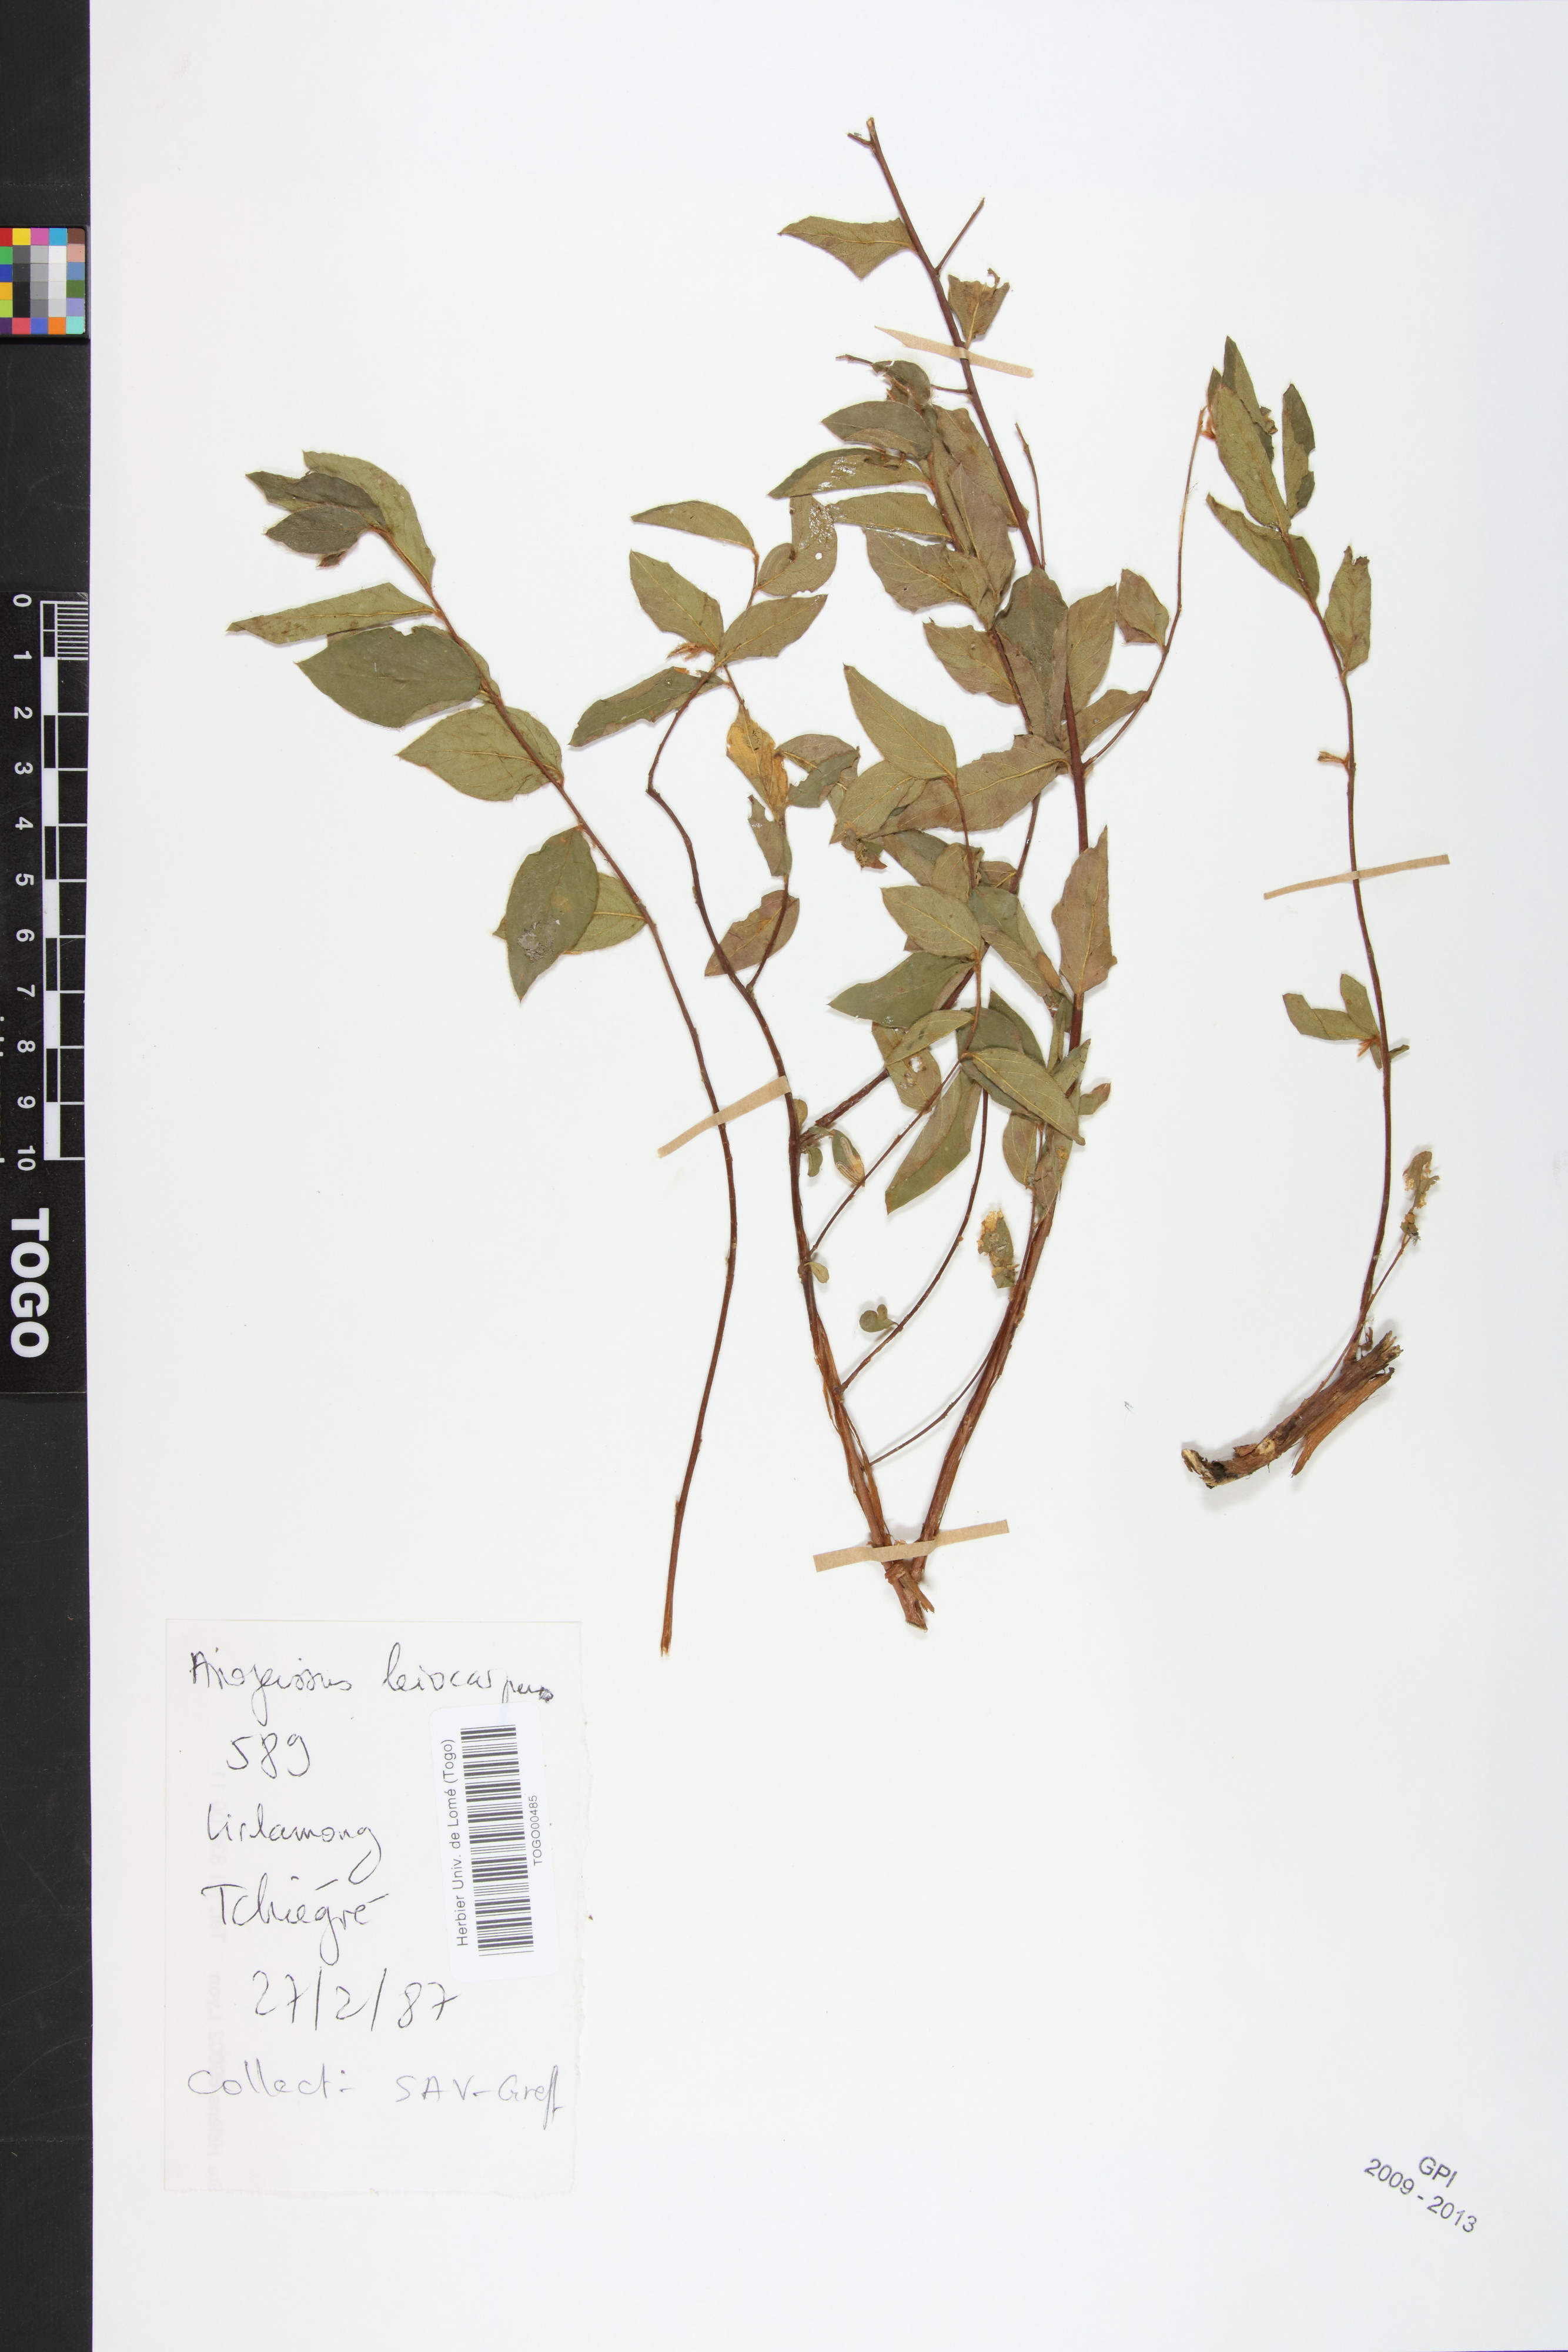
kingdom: Plantae
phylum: Tracheophyta
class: Magnoliopsida
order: Myrtales
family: Combretaceae
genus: Terminalia
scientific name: Terminalia leiocarpa
